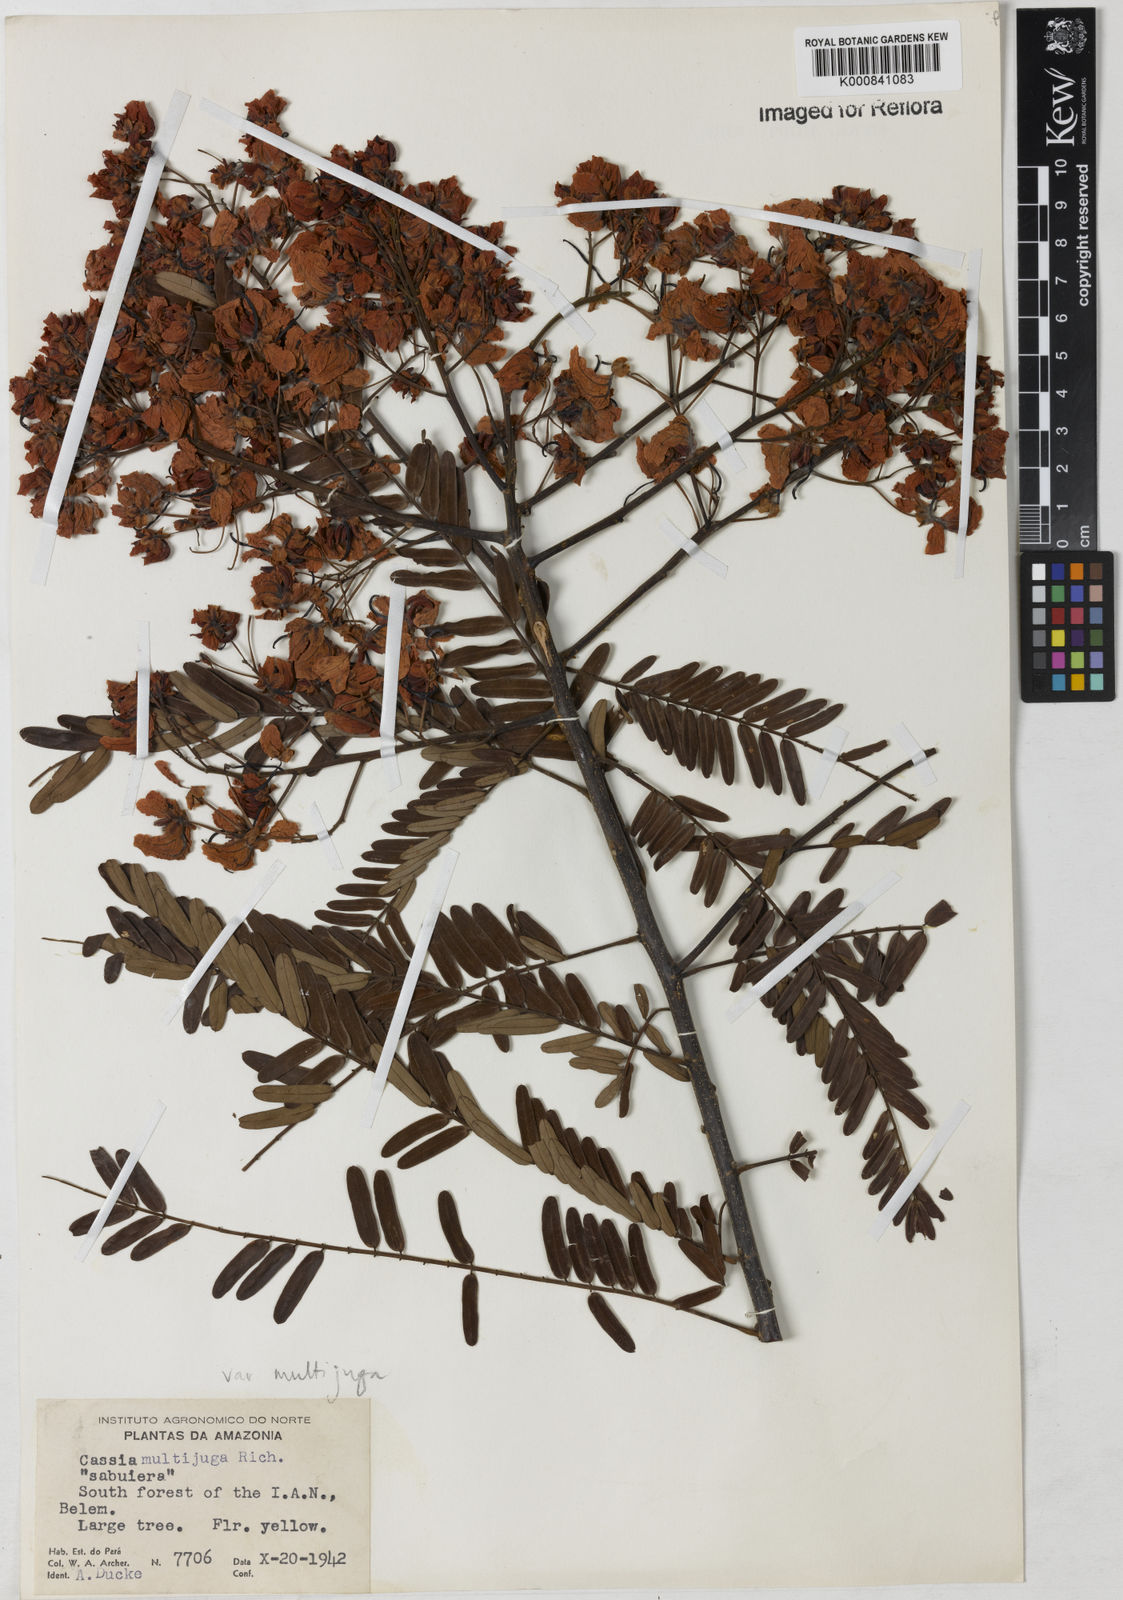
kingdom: Plantae
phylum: Tracheophyta
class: Magnoliopsida
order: Fabales
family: Fabaceae
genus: Senna
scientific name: Senna multijuga
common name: False sicklepod
